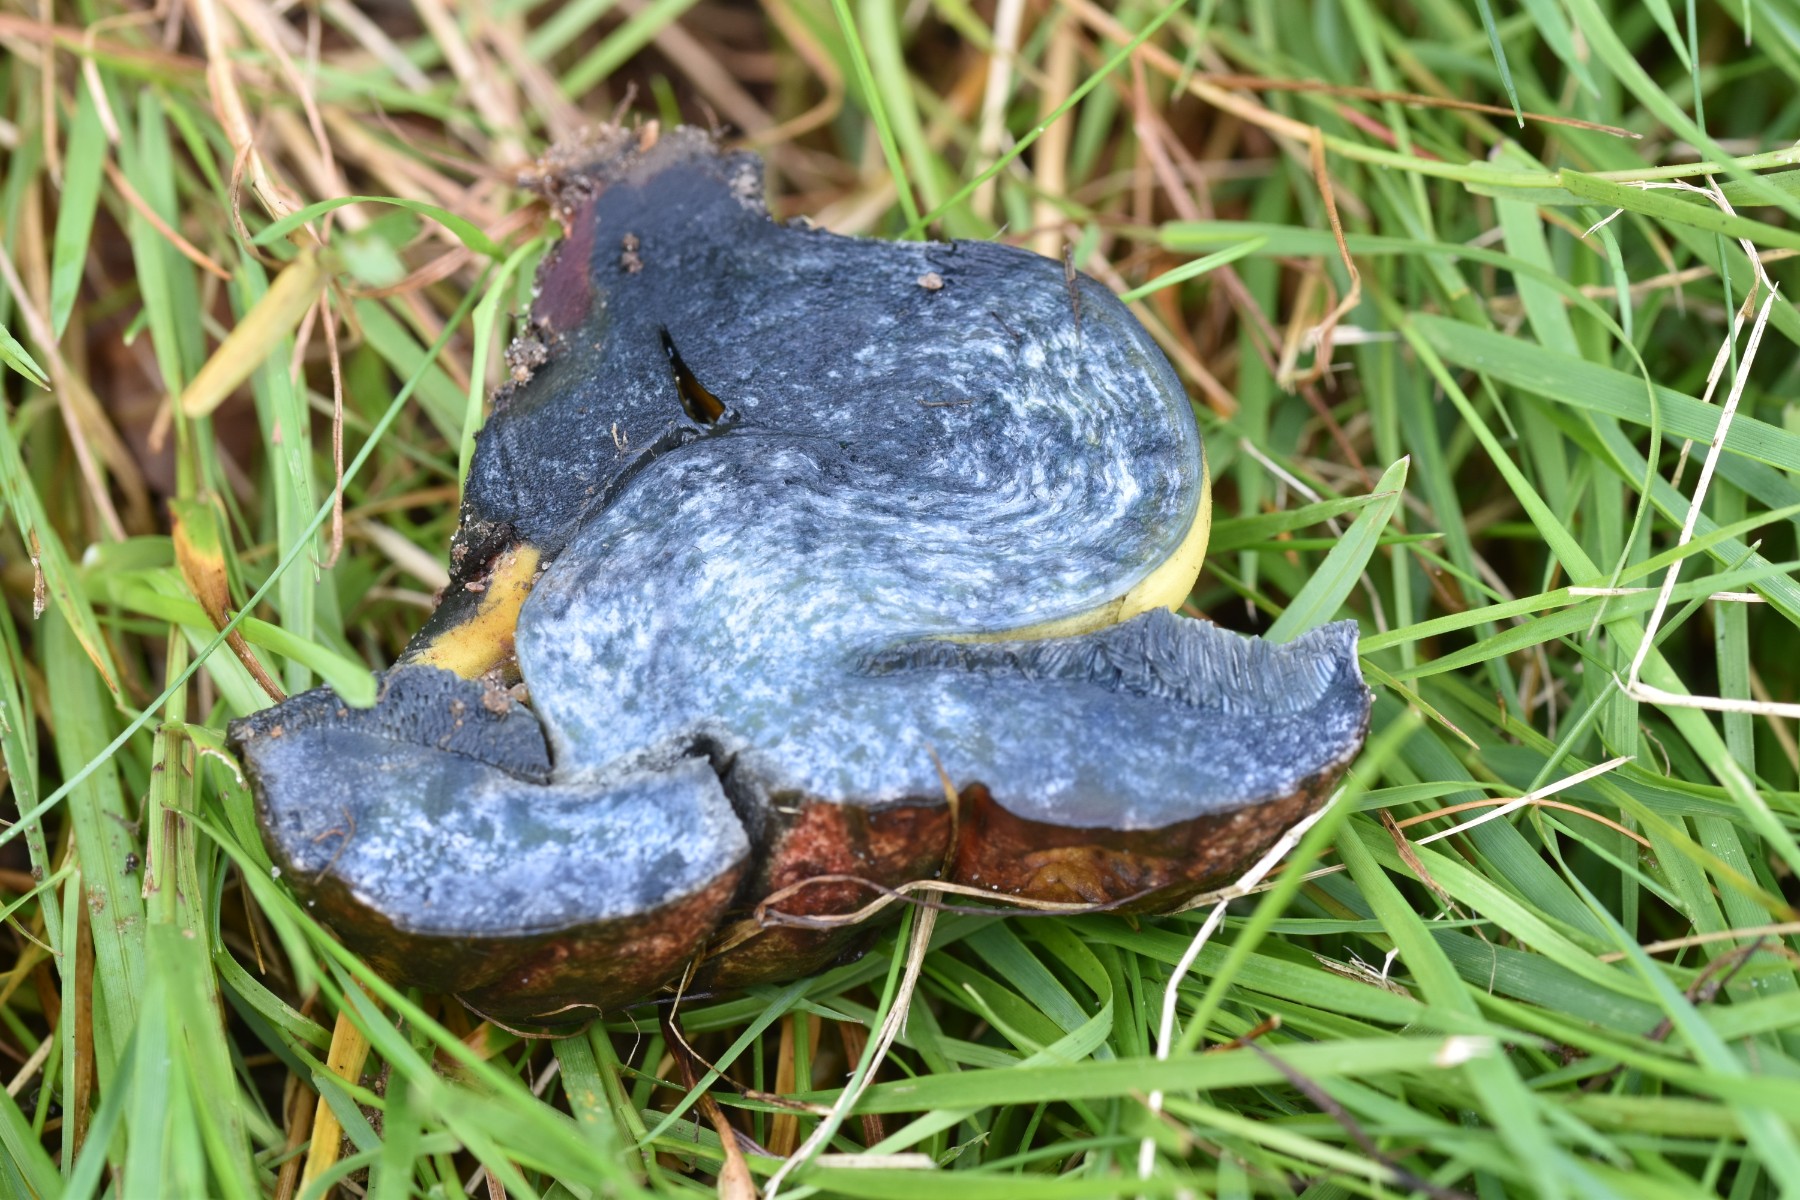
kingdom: Fungi
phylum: Basidiomycota
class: Agaricomycetes
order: Boletales
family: Boletaceae
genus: Cyanoboletus
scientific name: Cyanoboletus pulverulentus
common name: sortblånende rørhat
